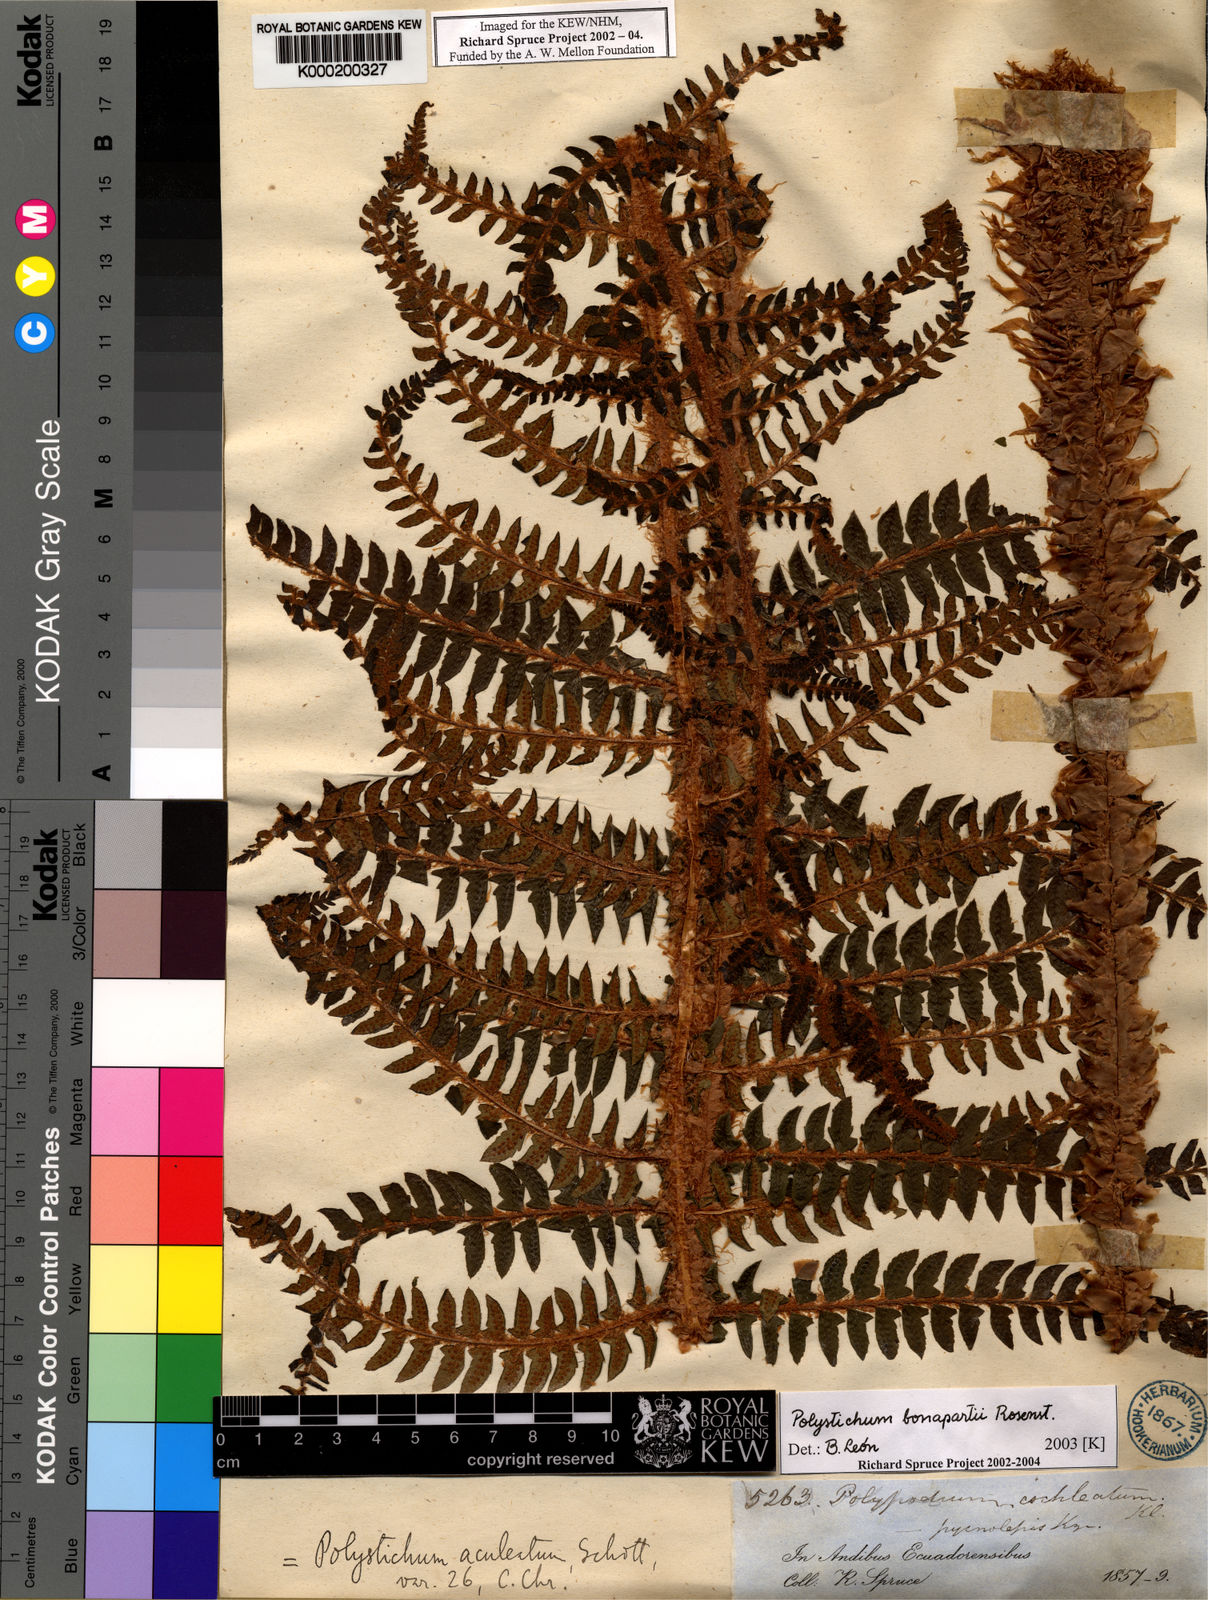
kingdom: Plantae
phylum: Tracheophyta
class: Polypodiopsida
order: Polypodiales
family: Dryopteridaceae
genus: Polystichum
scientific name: Polystichum bonapartii
